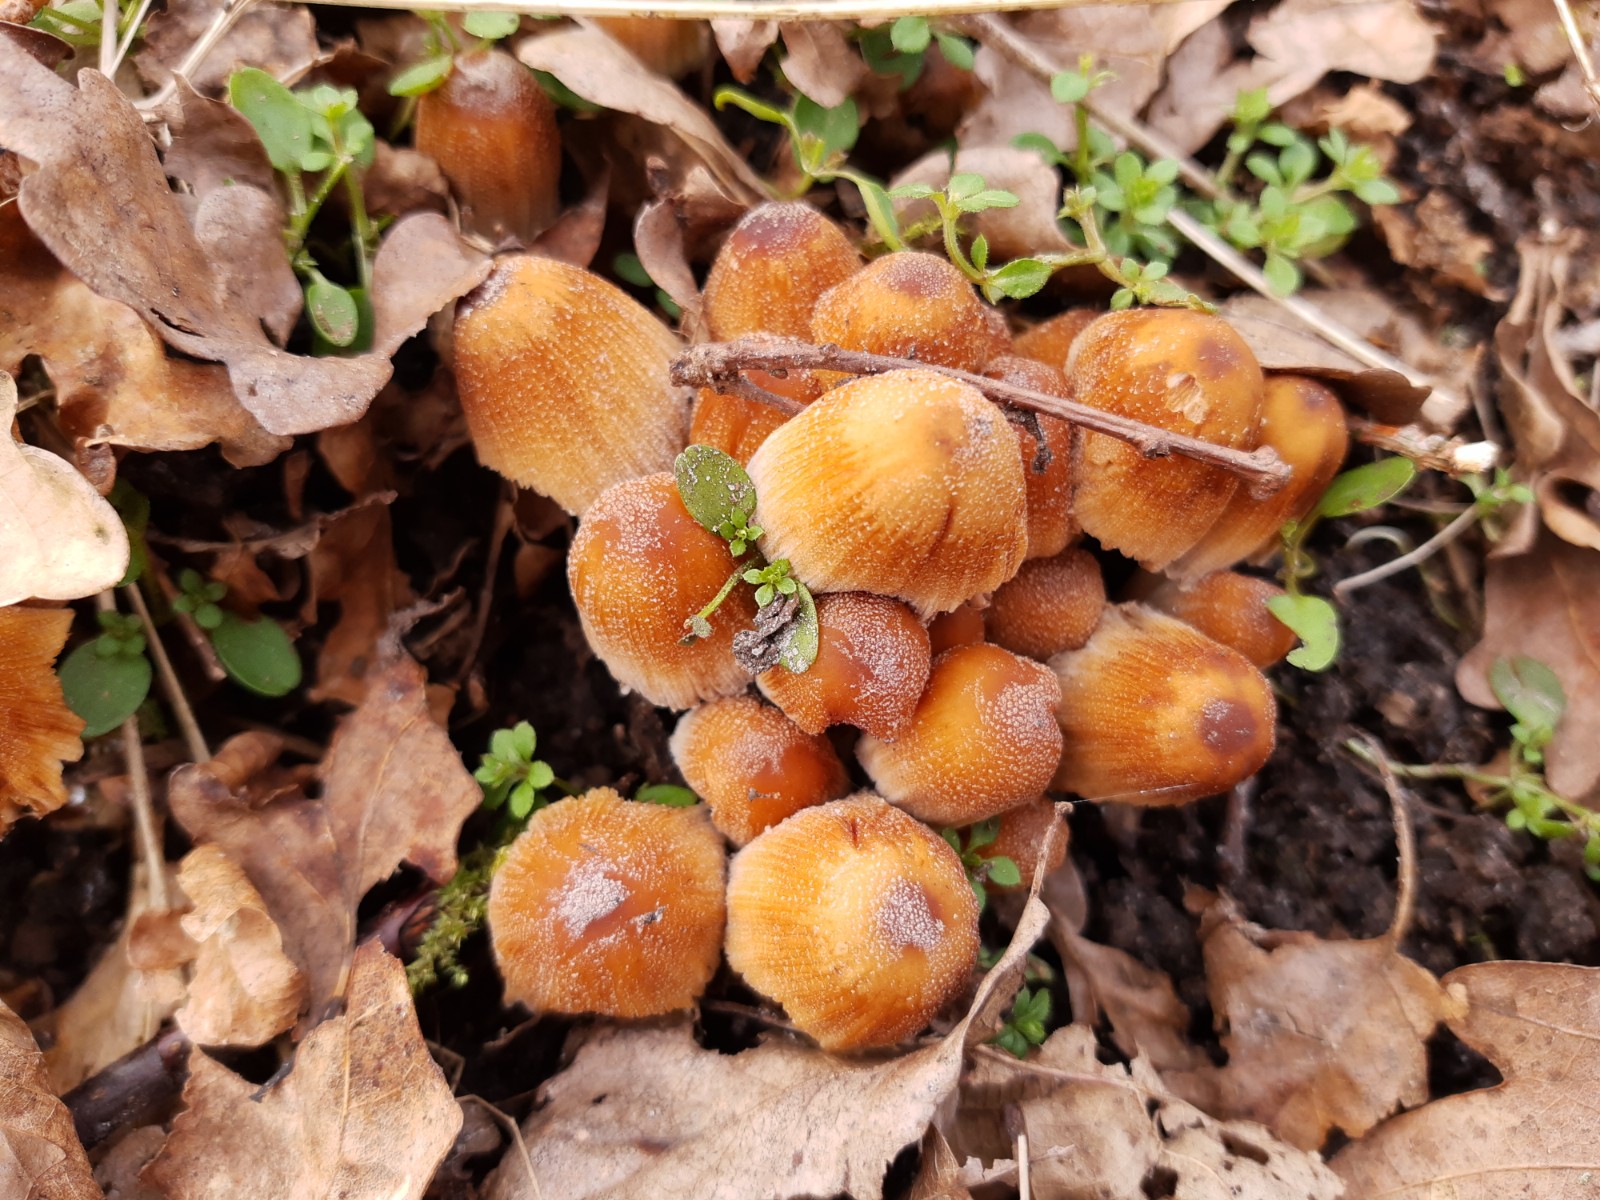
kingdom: Fungi
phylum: Basidiomycota
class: Agaricomycetes
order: Agaricales
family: Psathyrellaceae
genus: Coprinellus
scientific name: Coprinellus micaceus
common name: glimmer-blækhat
